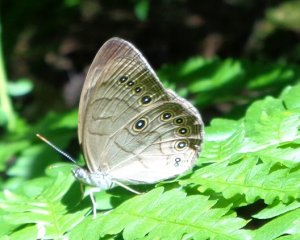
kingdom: Animalia
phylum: Arthropoda
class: Insecta
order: Lepidoptera
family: Nymphalidae
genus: Lethe
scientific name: Lethe eurydice
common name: Appalachian Eyed Brown
